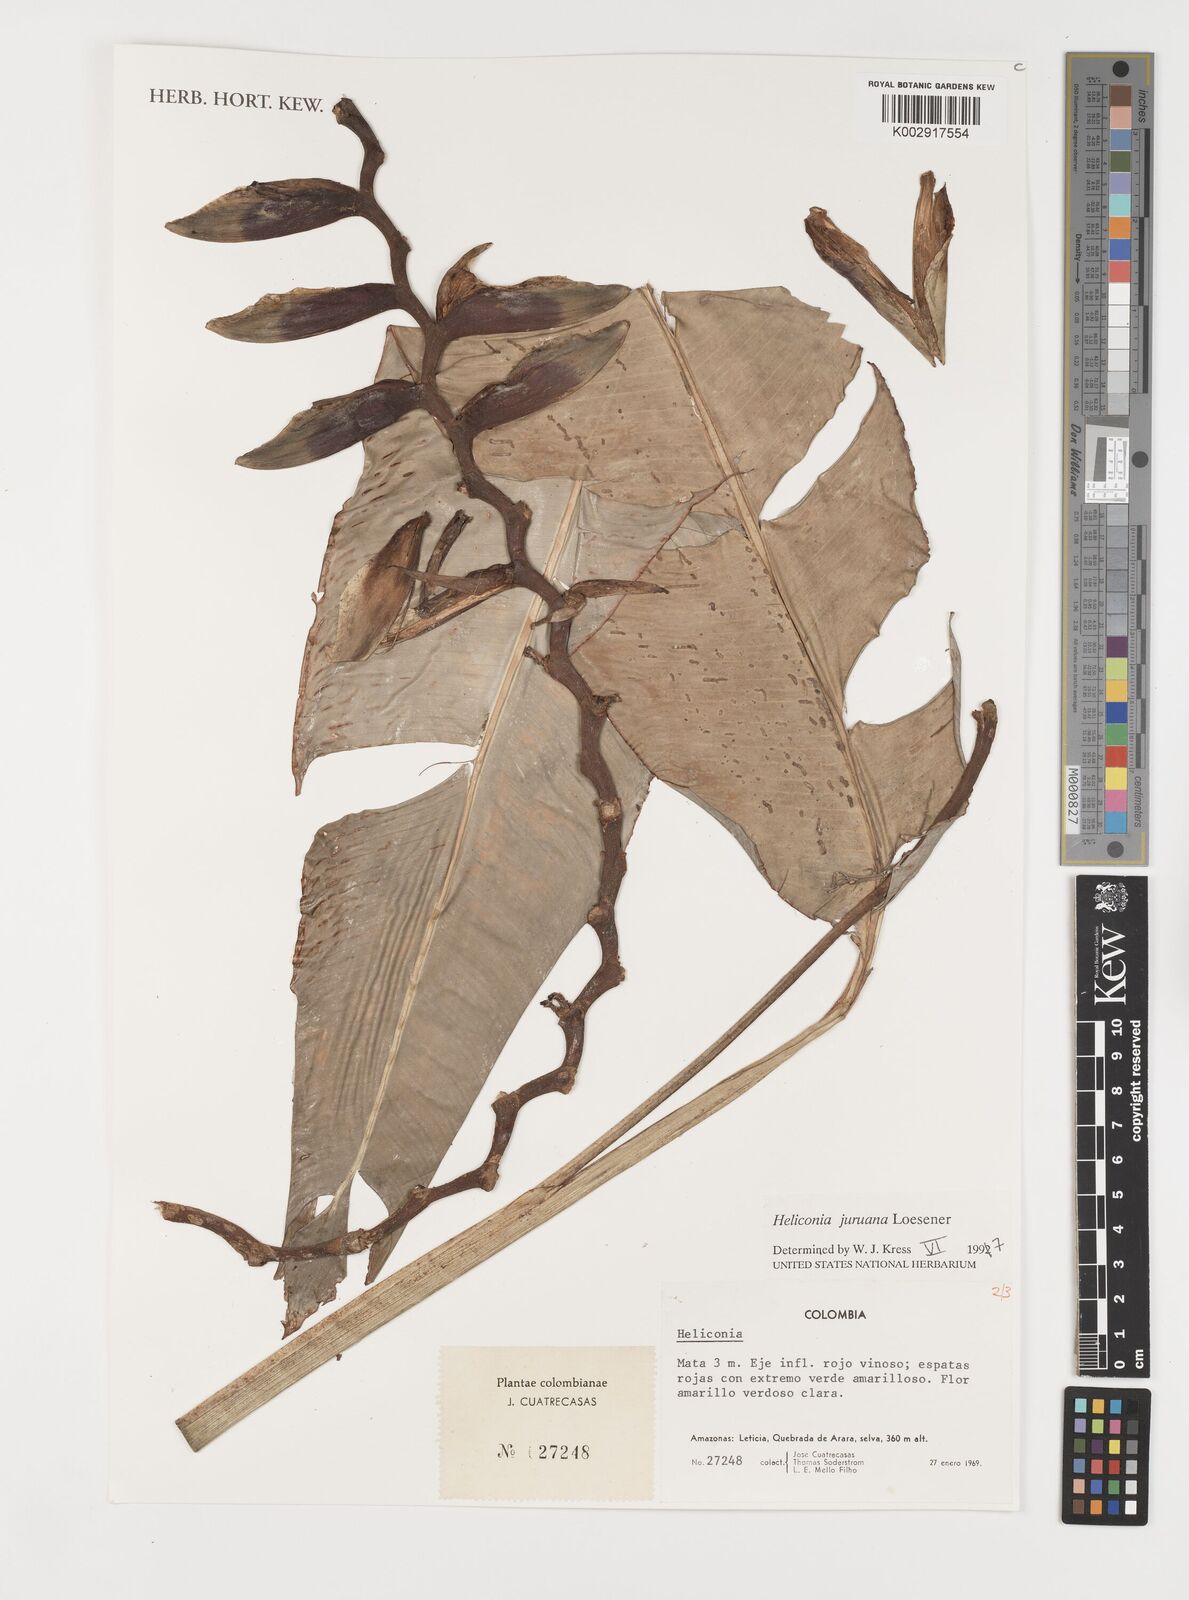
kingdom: Plantae
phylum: Tracheophyta
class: Liliopsida
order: Zingiberales
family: Heliconiaceae
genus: Heliconia
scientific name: Heliconia juruana
